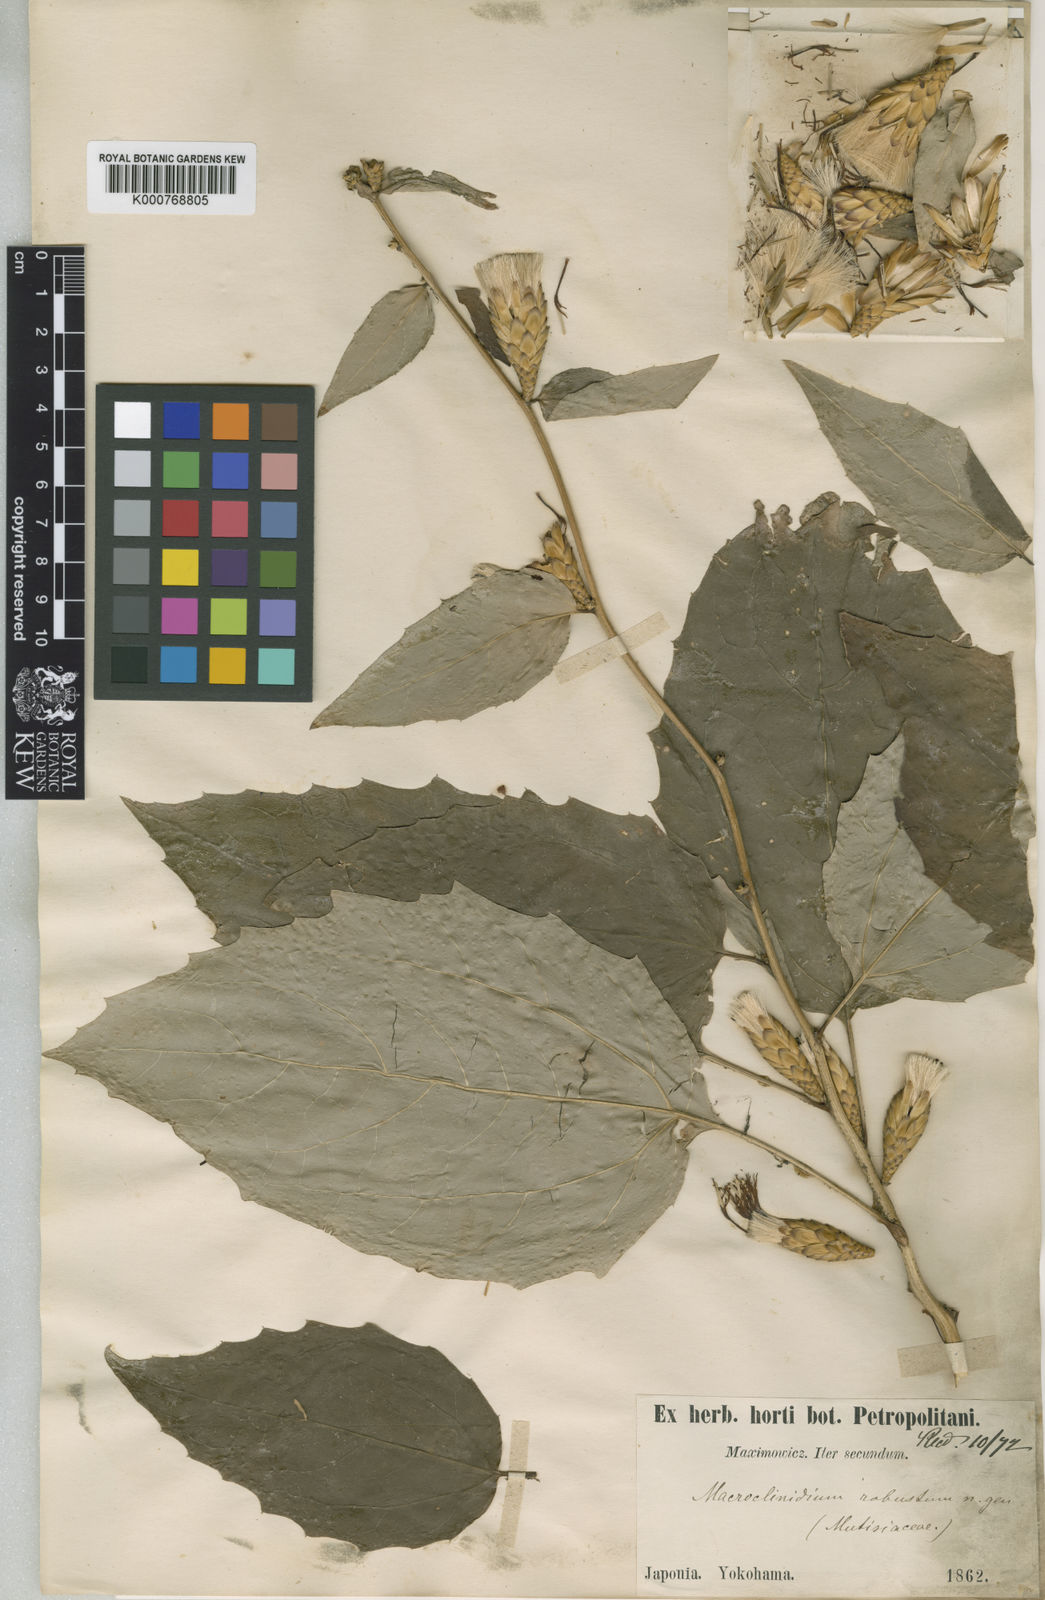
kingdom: Plantae
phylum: Tracheophyta
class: Magnoliopsida
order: Asterales
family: Asteraceae
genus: Pertya
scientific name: Pertya robusta
